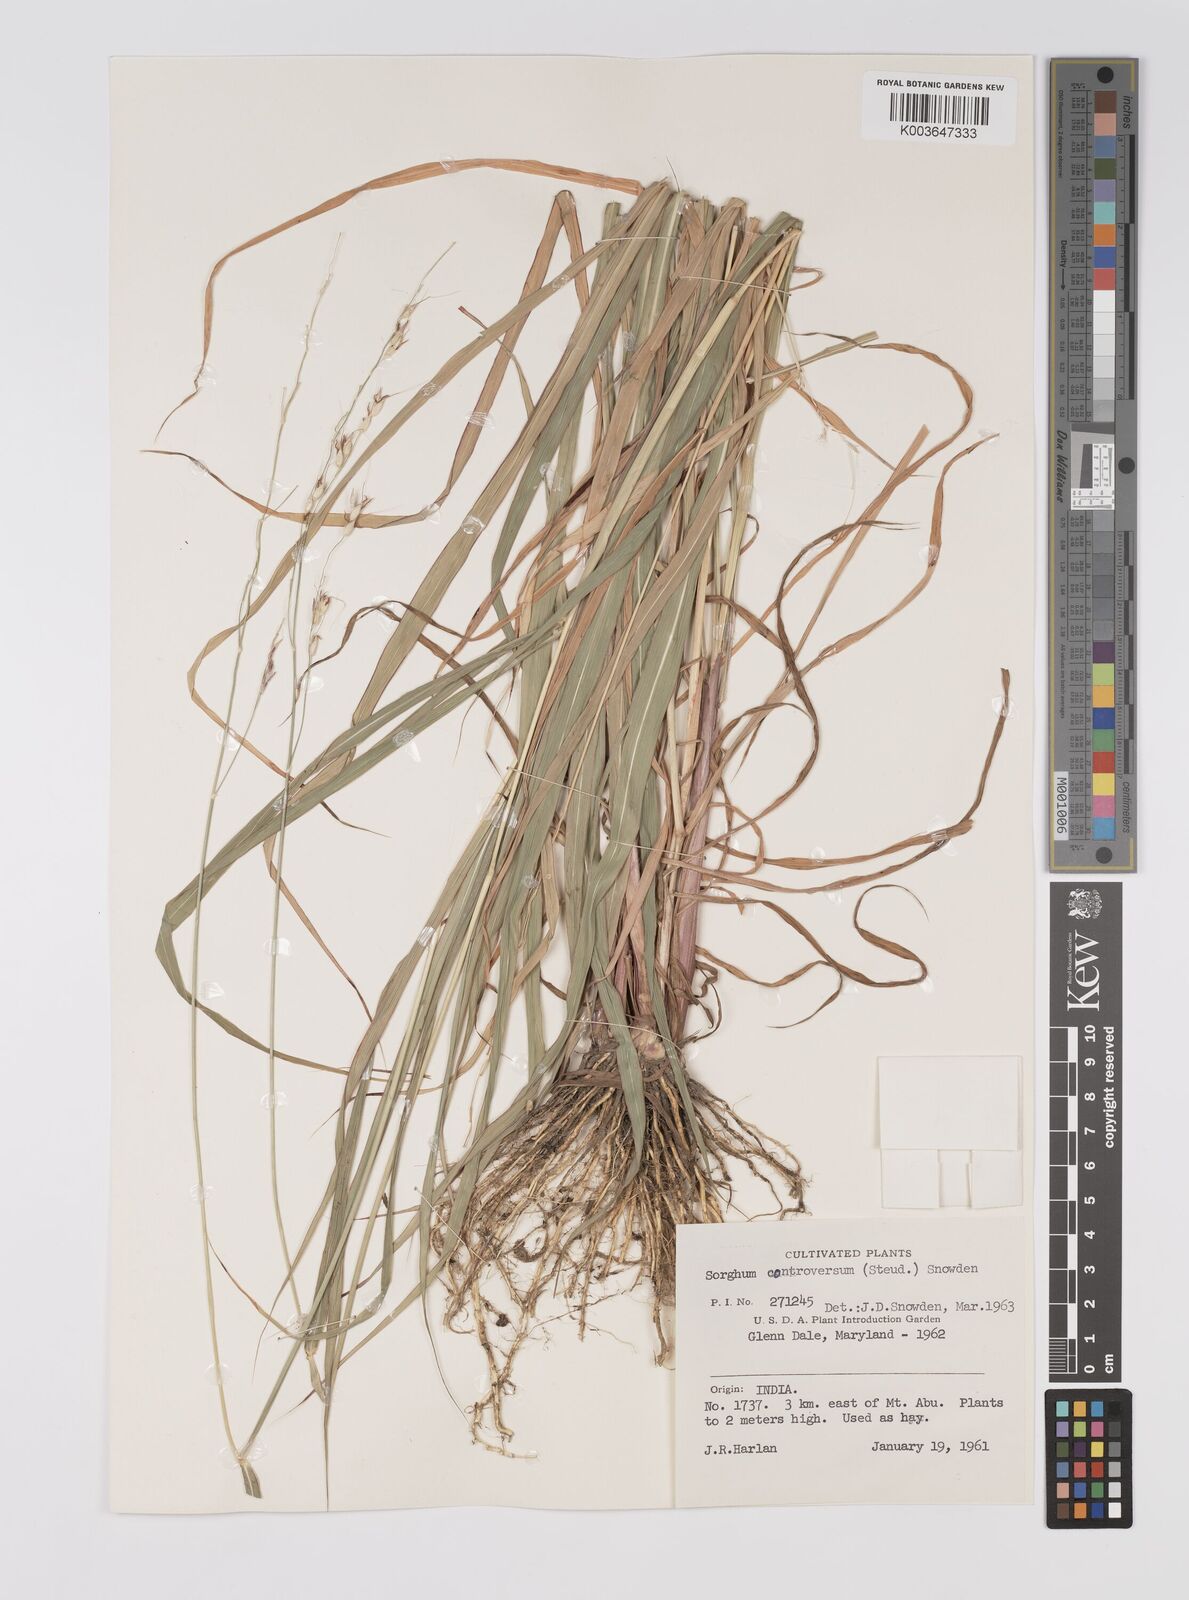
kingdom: Plantae
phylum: Tracheophyta
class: Liliopsida
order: Poales
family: Poaceae
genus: Sorghum
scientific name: Sorghum controversum
